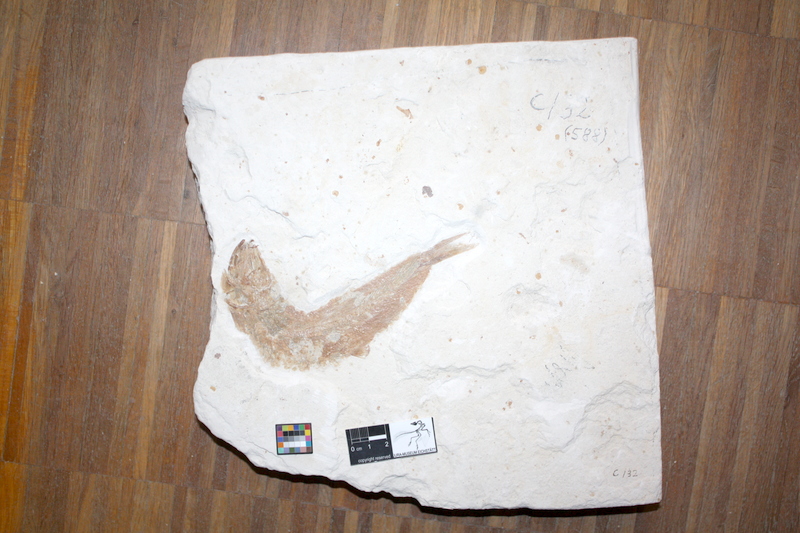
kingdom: Animalia
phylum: Chordata
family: Ascalaboidae
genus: Tharsis
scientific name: Tharsis dubius
